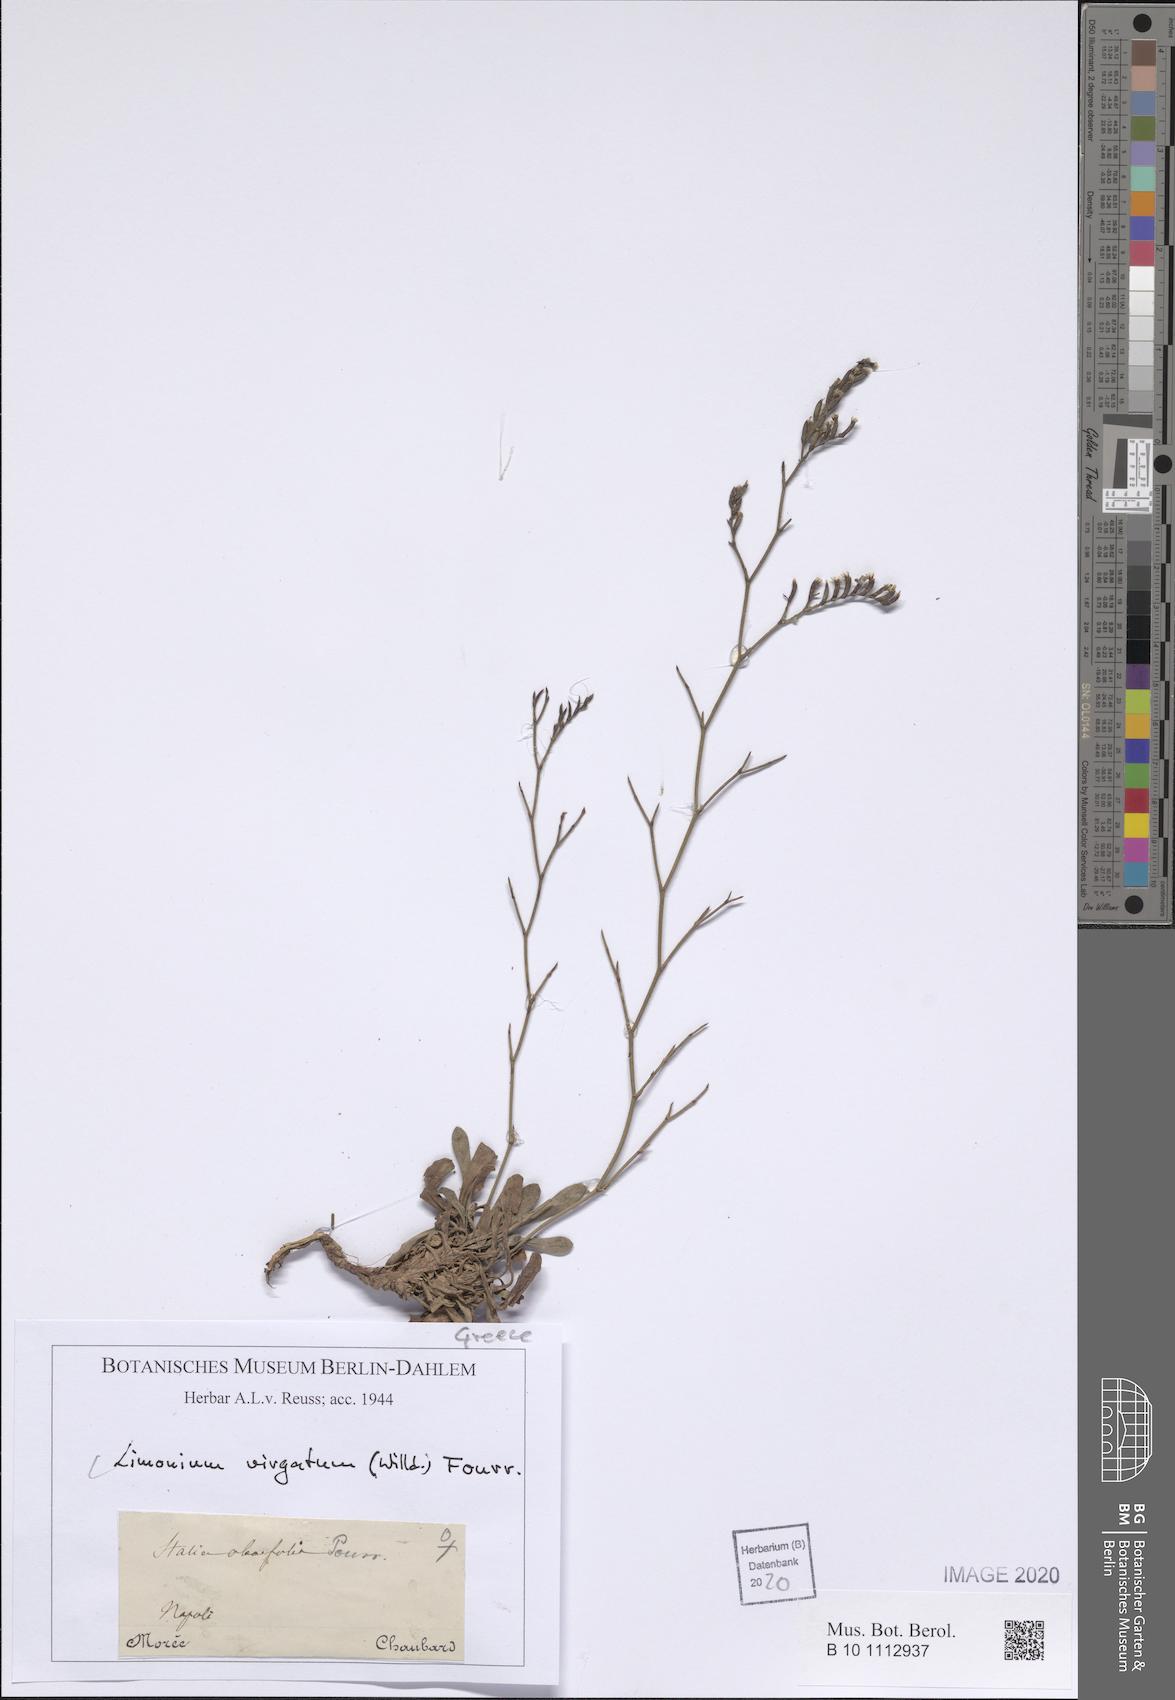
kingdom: Plantae
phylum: Tracheophyta
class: Magnoliopsida
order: Caryophyllales
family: Plumbaginaceae
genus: Limonium
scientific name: Limonium virgatum
